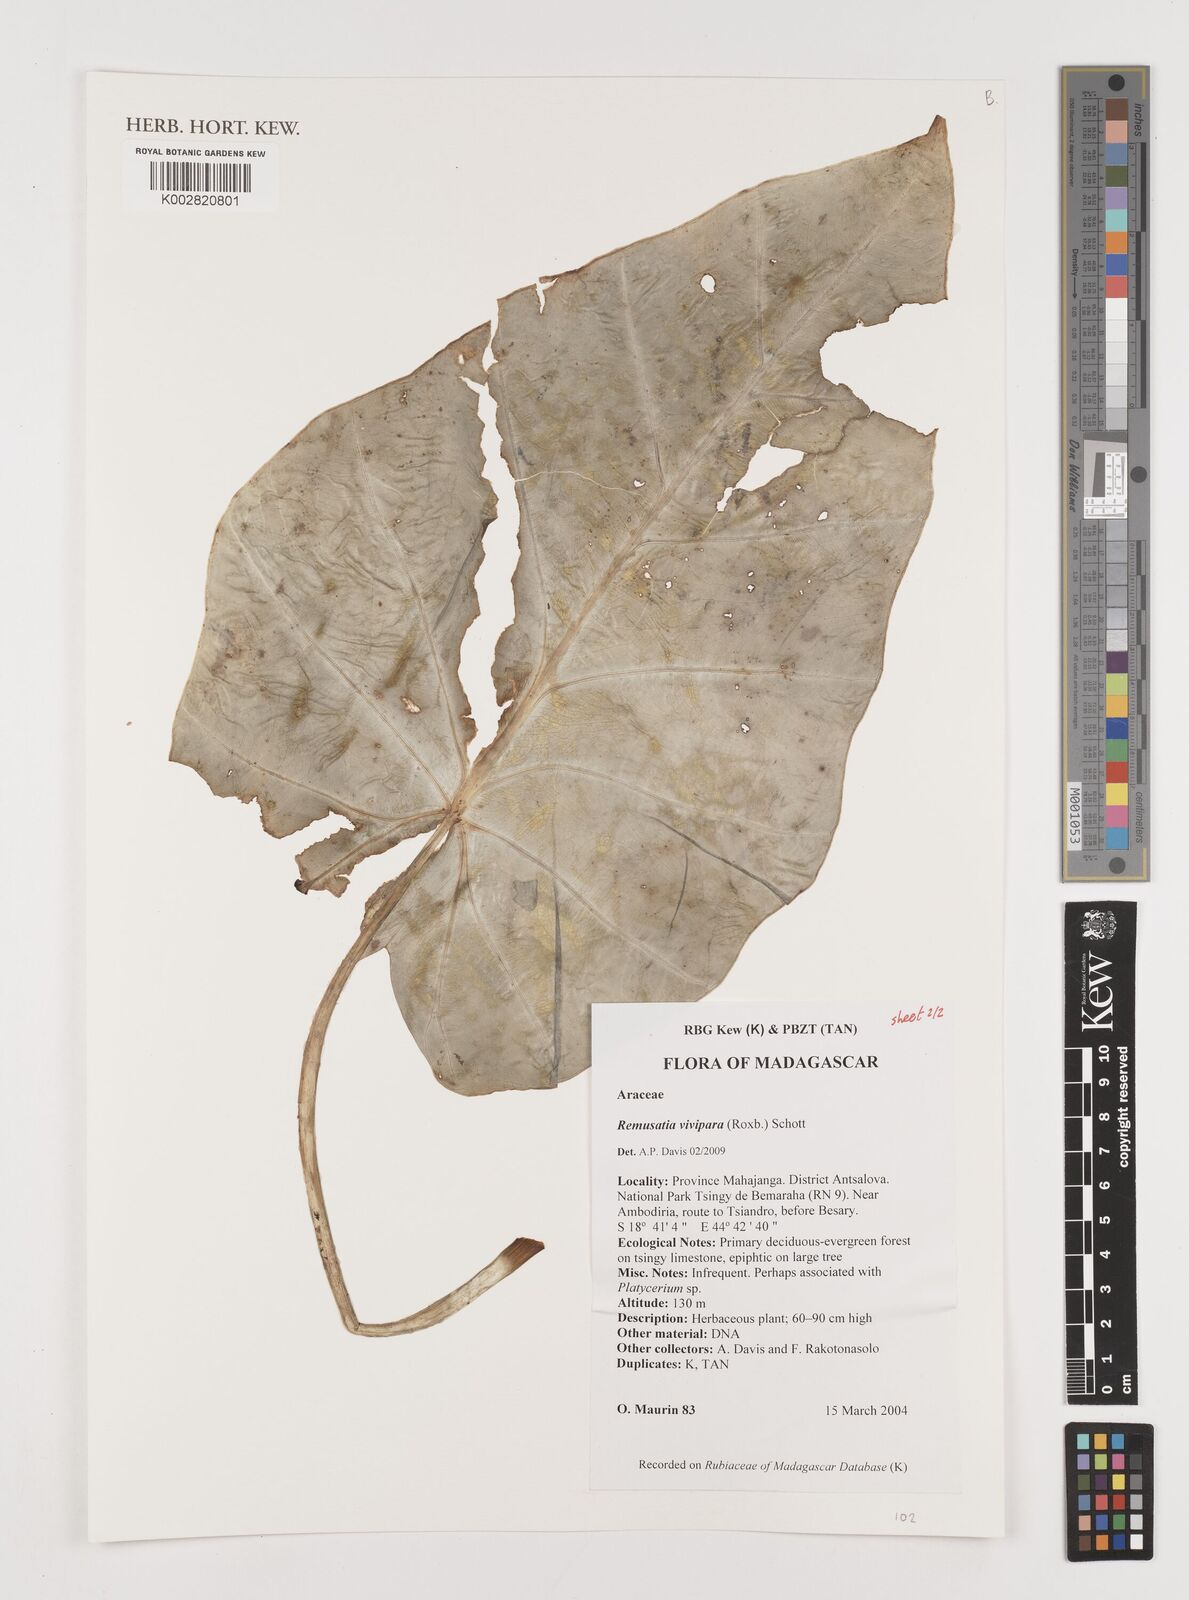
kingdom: Plantae
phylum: Tracheophyta
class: Liliopsida
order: Alismatales
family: Araceae
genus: Remusatia
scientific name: Remusatia vivipara
